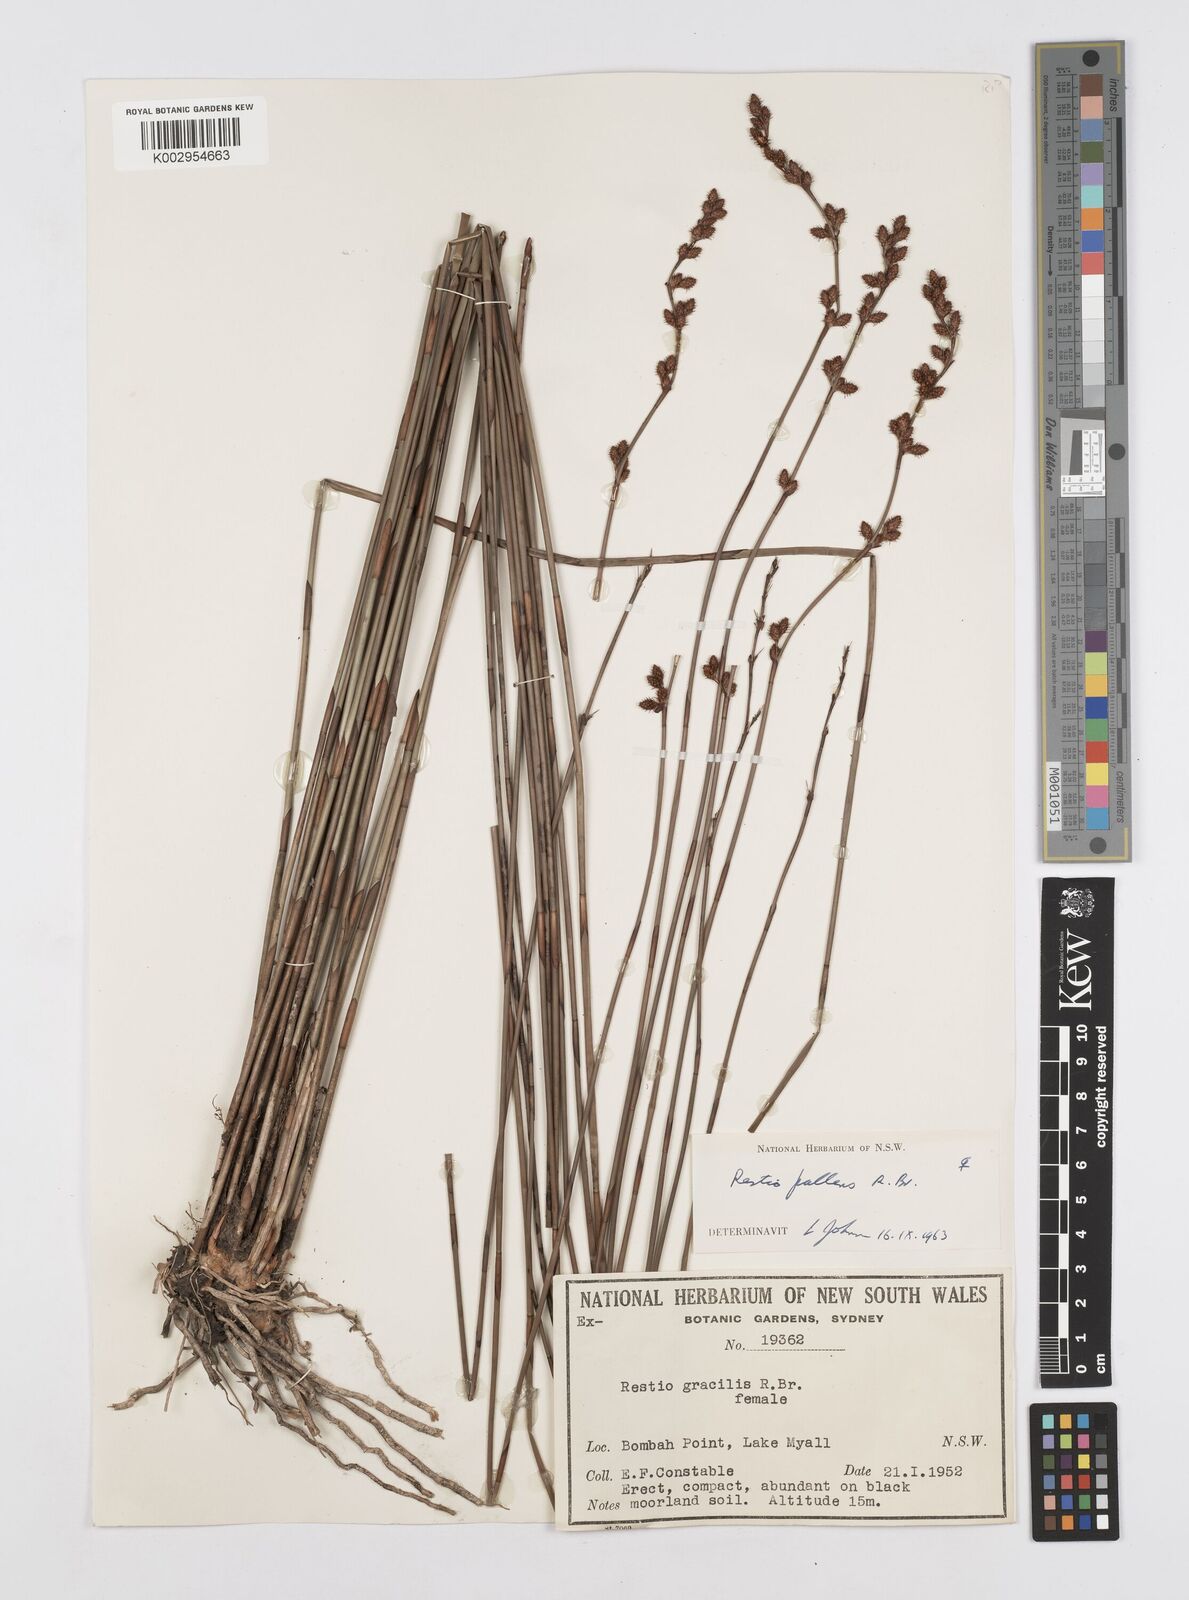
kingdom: Plantae
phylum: Tracheophyta
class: Liliopsida
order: Poales
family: Restionaceae
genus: Baloskion
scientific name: Baloskion pallens
